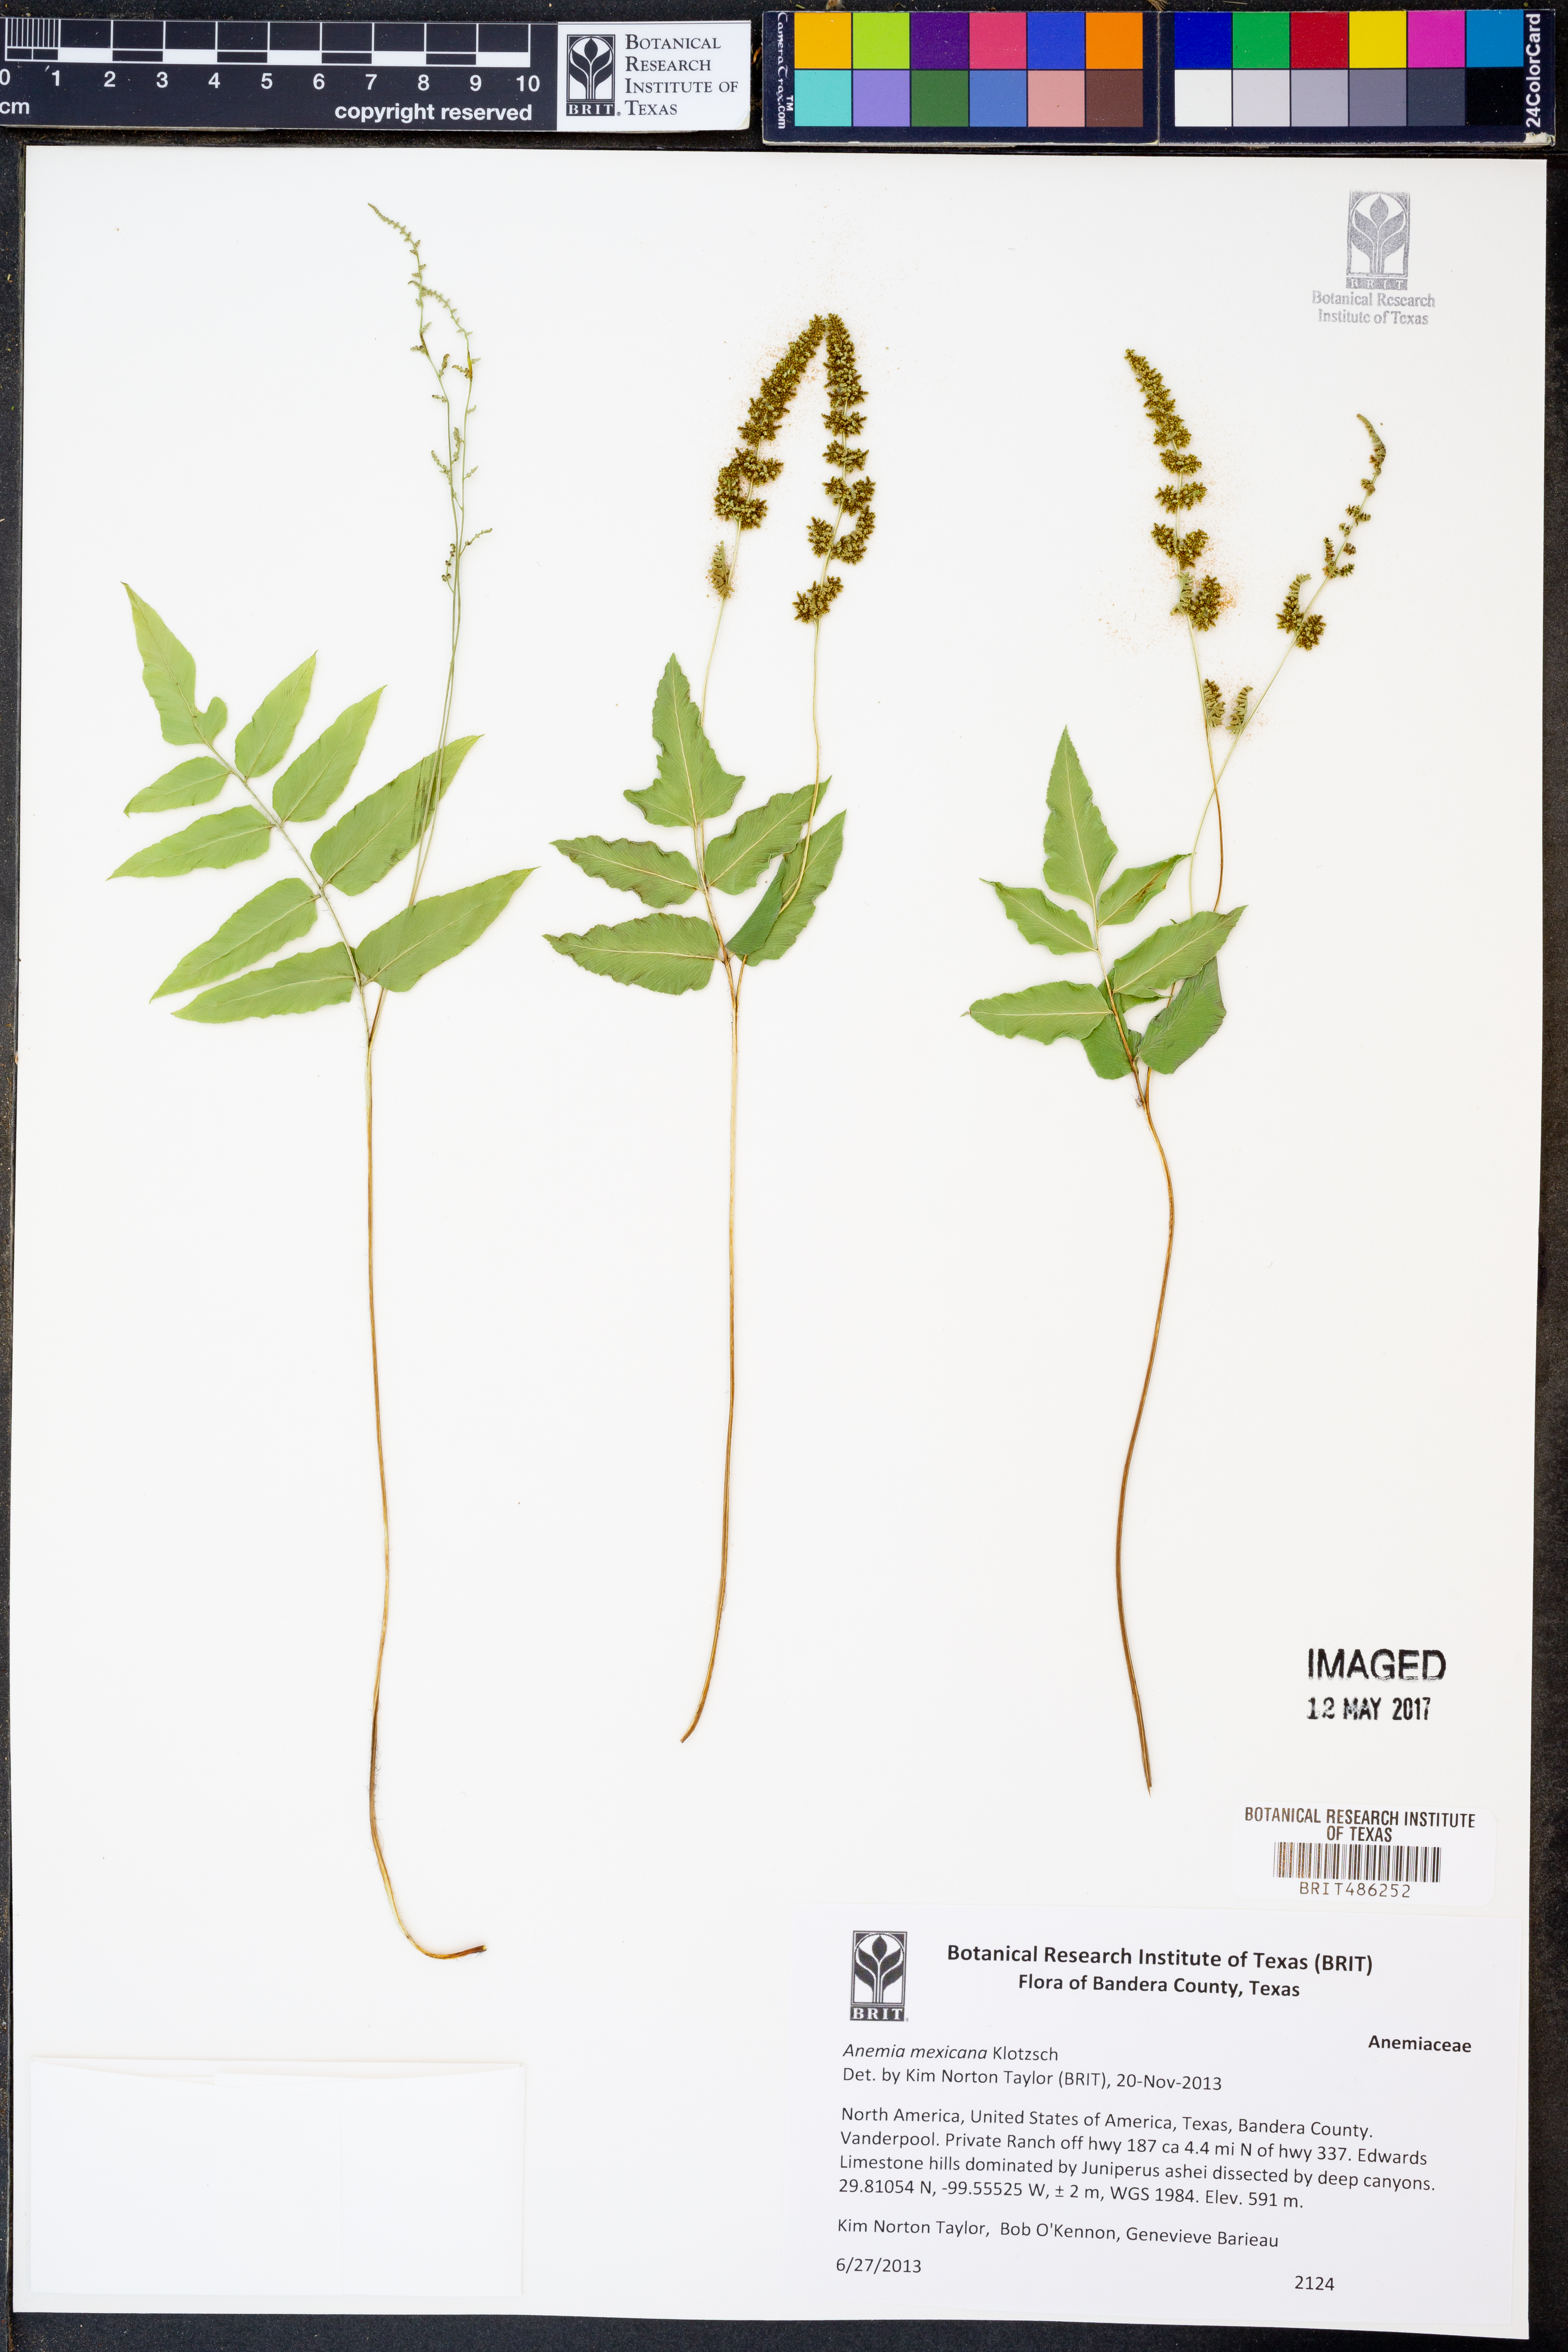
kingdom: Plantae
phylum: Tracheophyta
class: Polypodiopsida
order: Schizaeales
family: Anemiaceae
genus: Anemia
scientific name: Anemia mexicana
